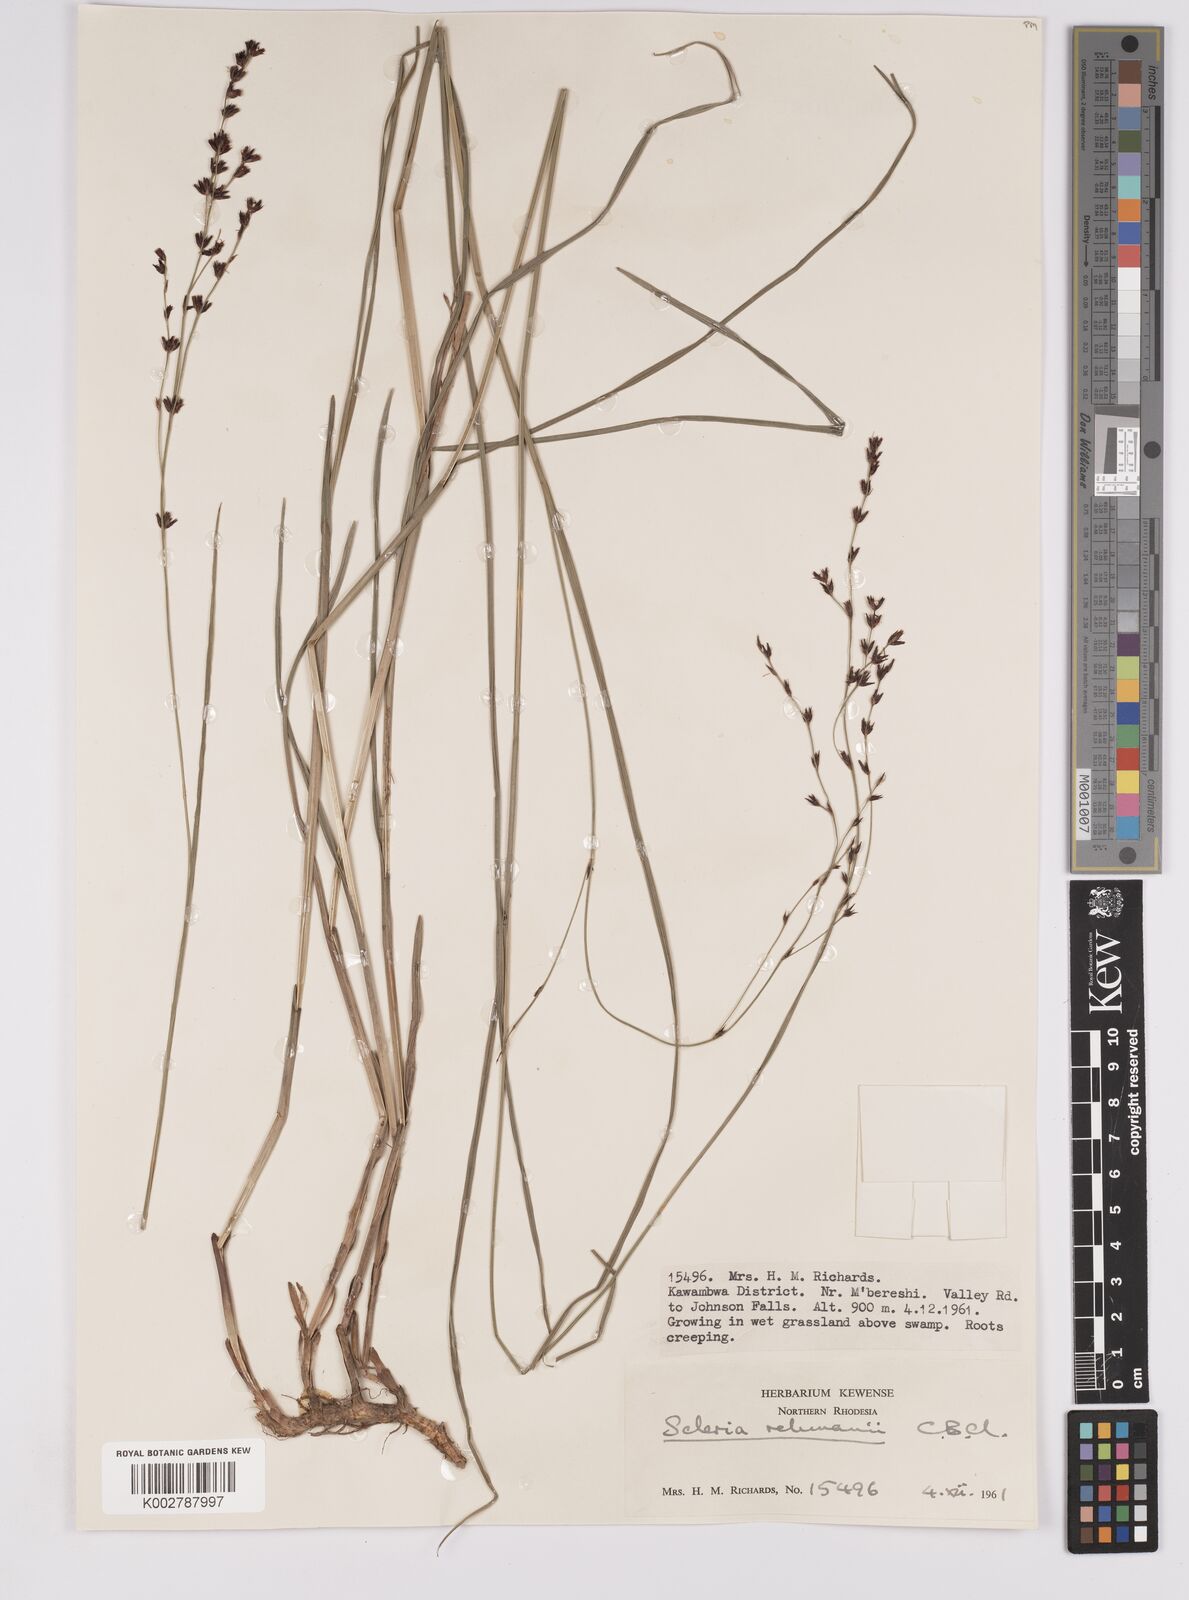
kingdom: Plantae
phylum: Tracheophyta
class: Liliopsida
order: Poales
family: Cyperaceae
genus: Scleria
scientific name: Scleria rehmannii
